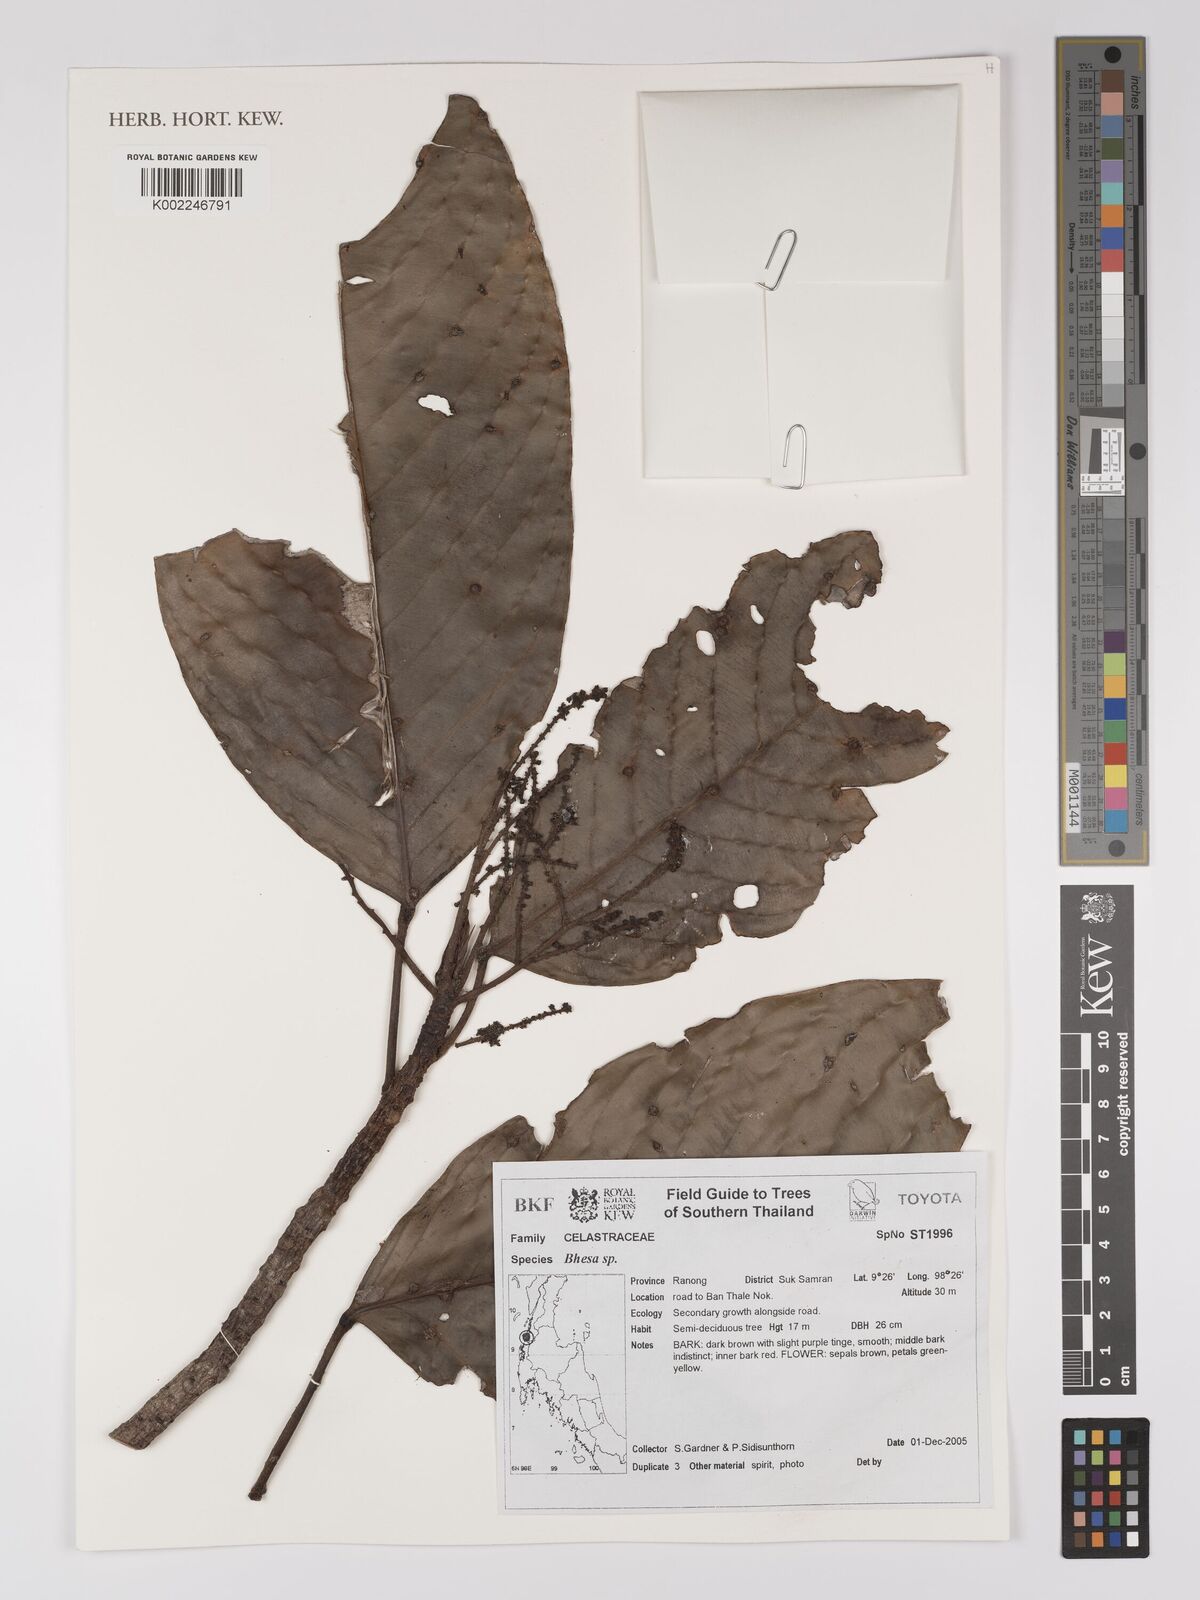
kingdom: Plantae
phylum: Tracheophyta
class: Magnoliopsida
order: Malpighiales
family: Centroplacaceae
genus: Bhesa
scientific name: Bhesa
